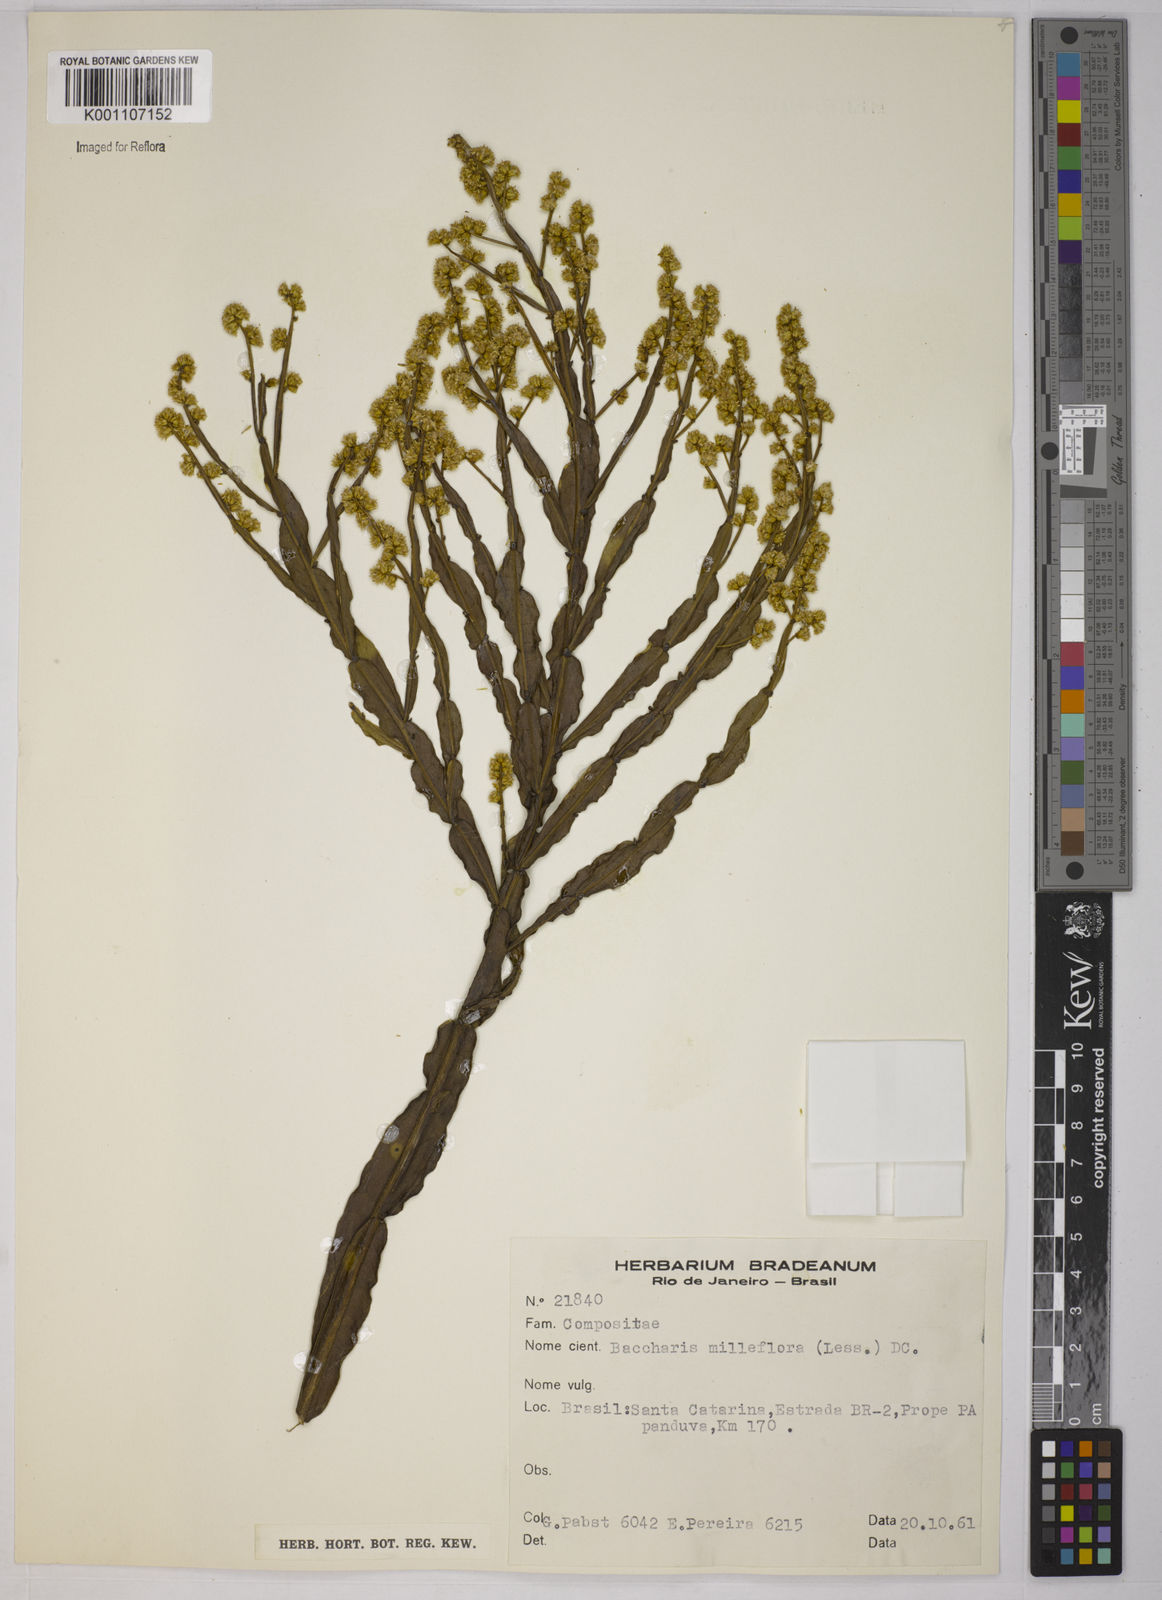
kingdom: Plantae
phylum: Tracheophyta
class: Magnoliopsida
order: Asterales
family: Asteraceae
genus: Baccharis
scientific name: Baccharis milleflora
